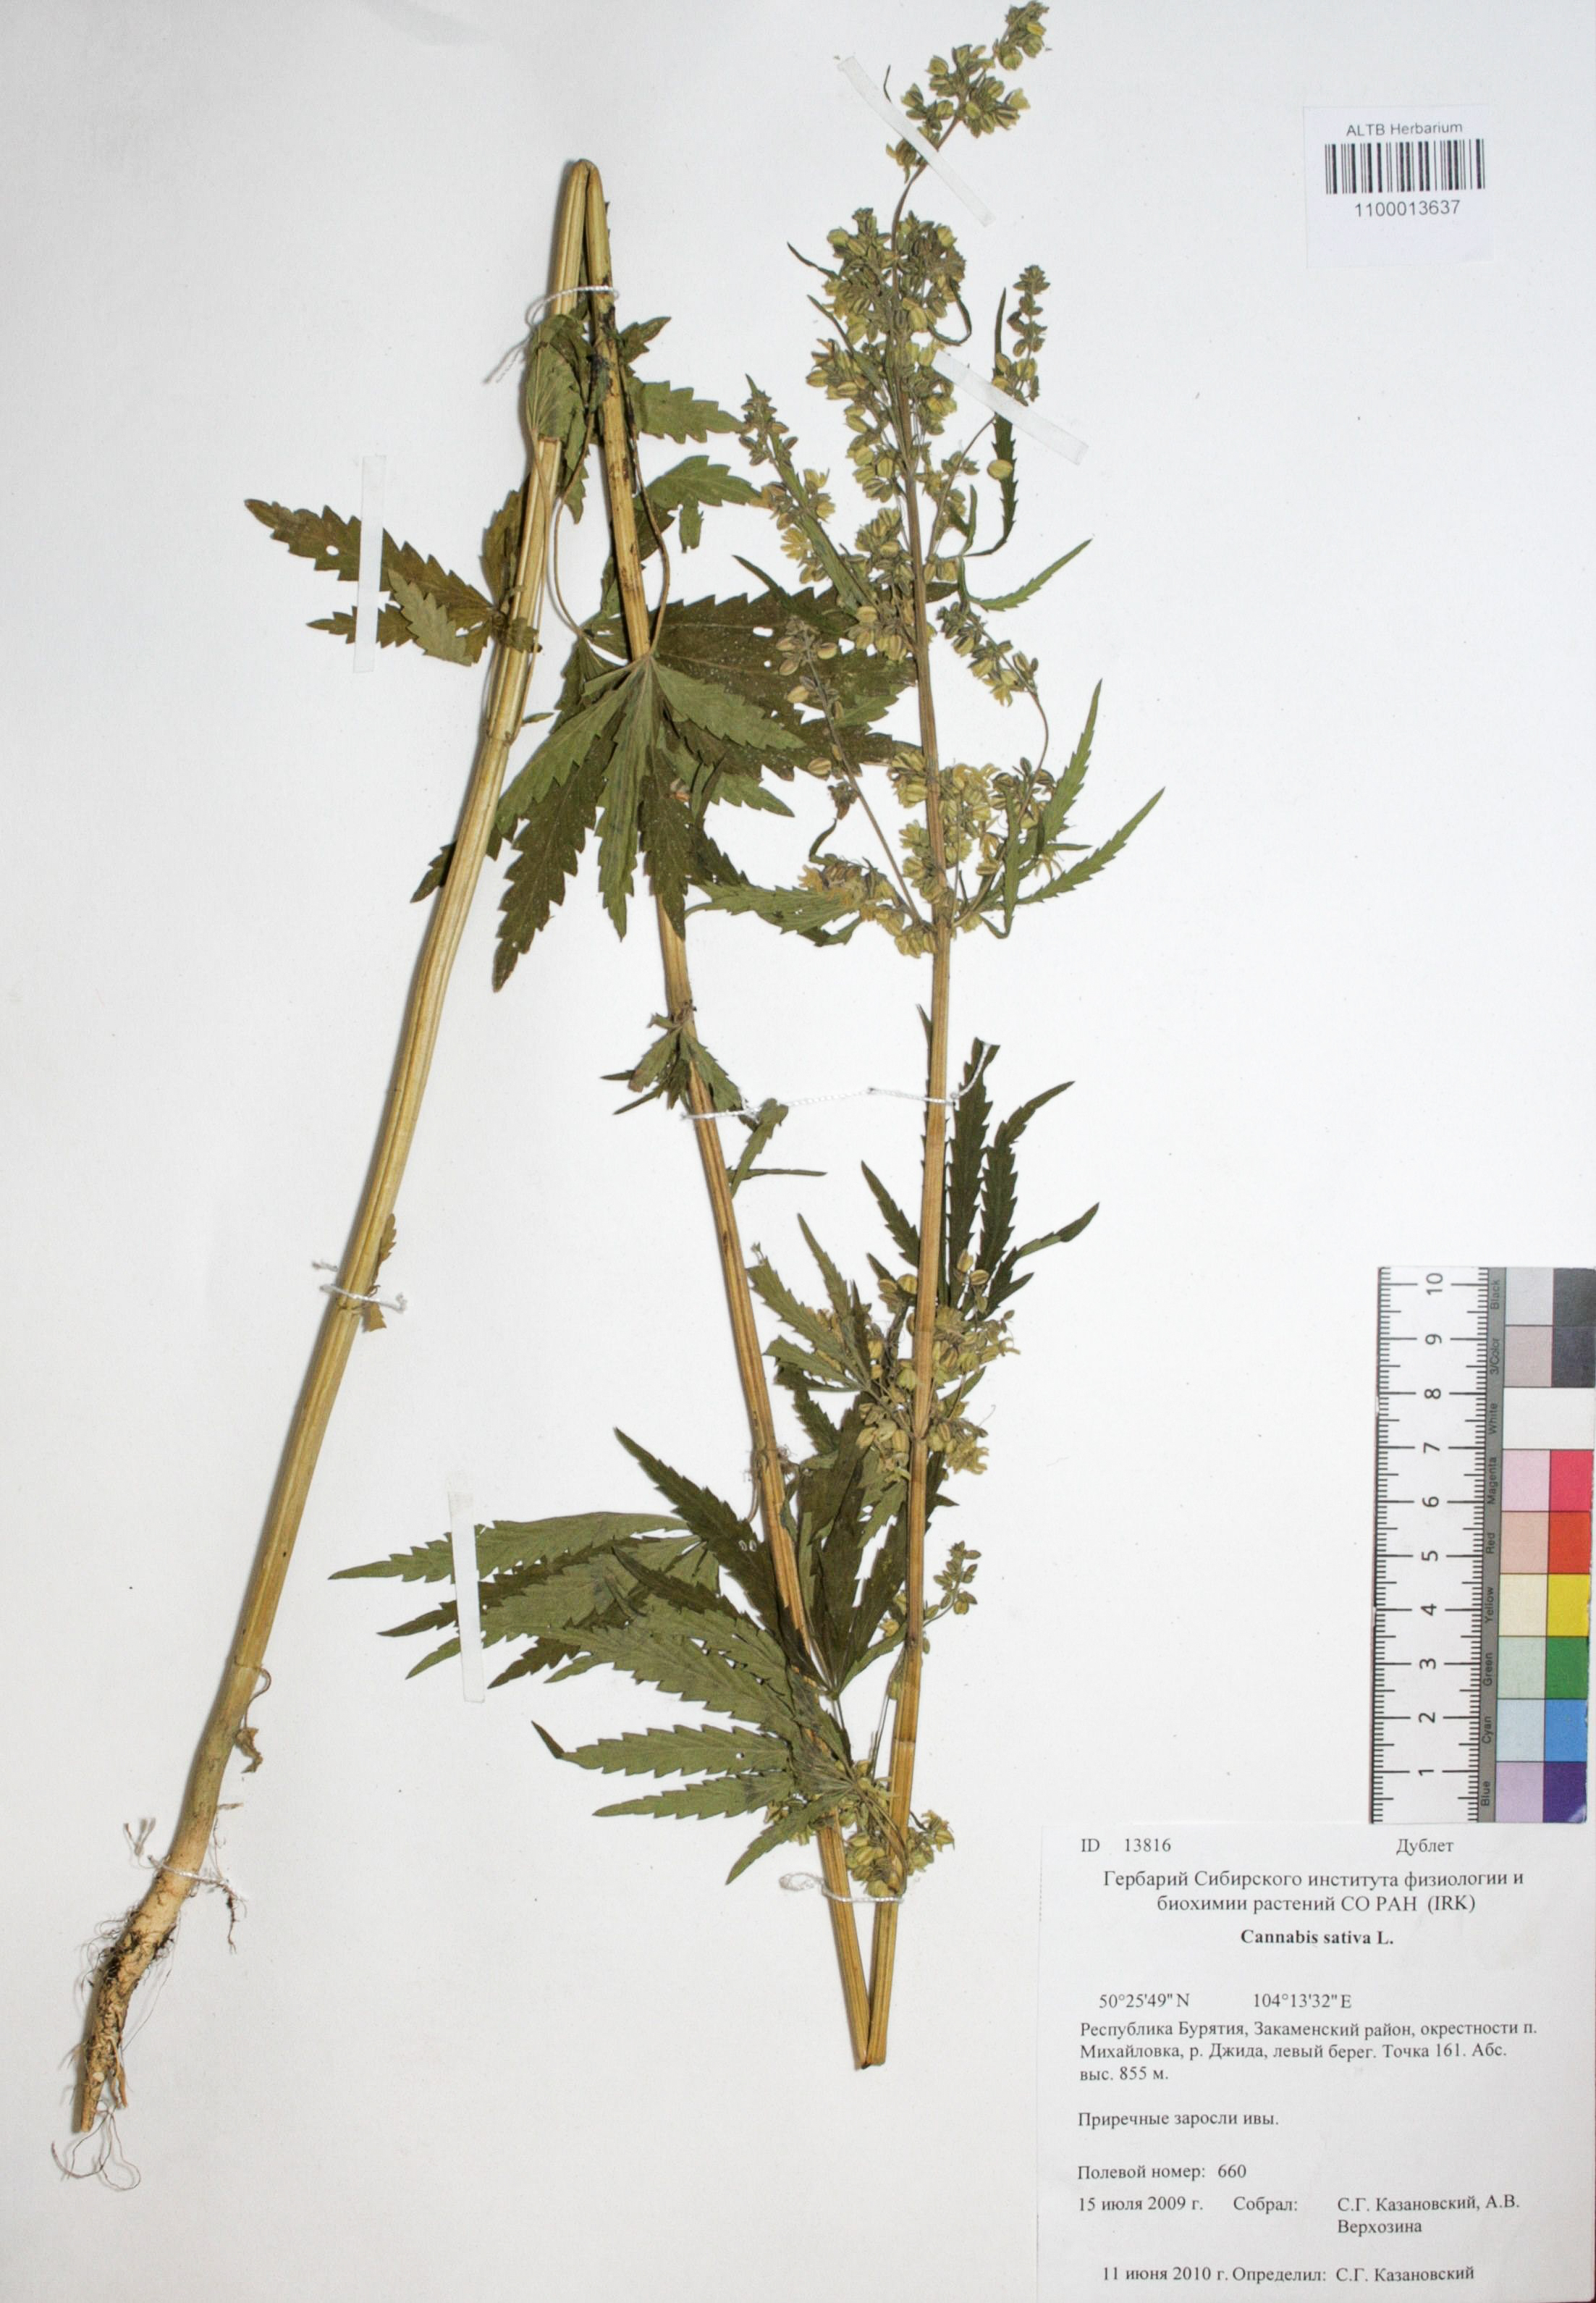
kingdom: Plantae
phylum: Tracheophyta
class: Magnoliopsida
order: Rosales
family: Cannabaceae
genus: Cannabis
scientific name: Cannabis sativa
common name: Hemp
